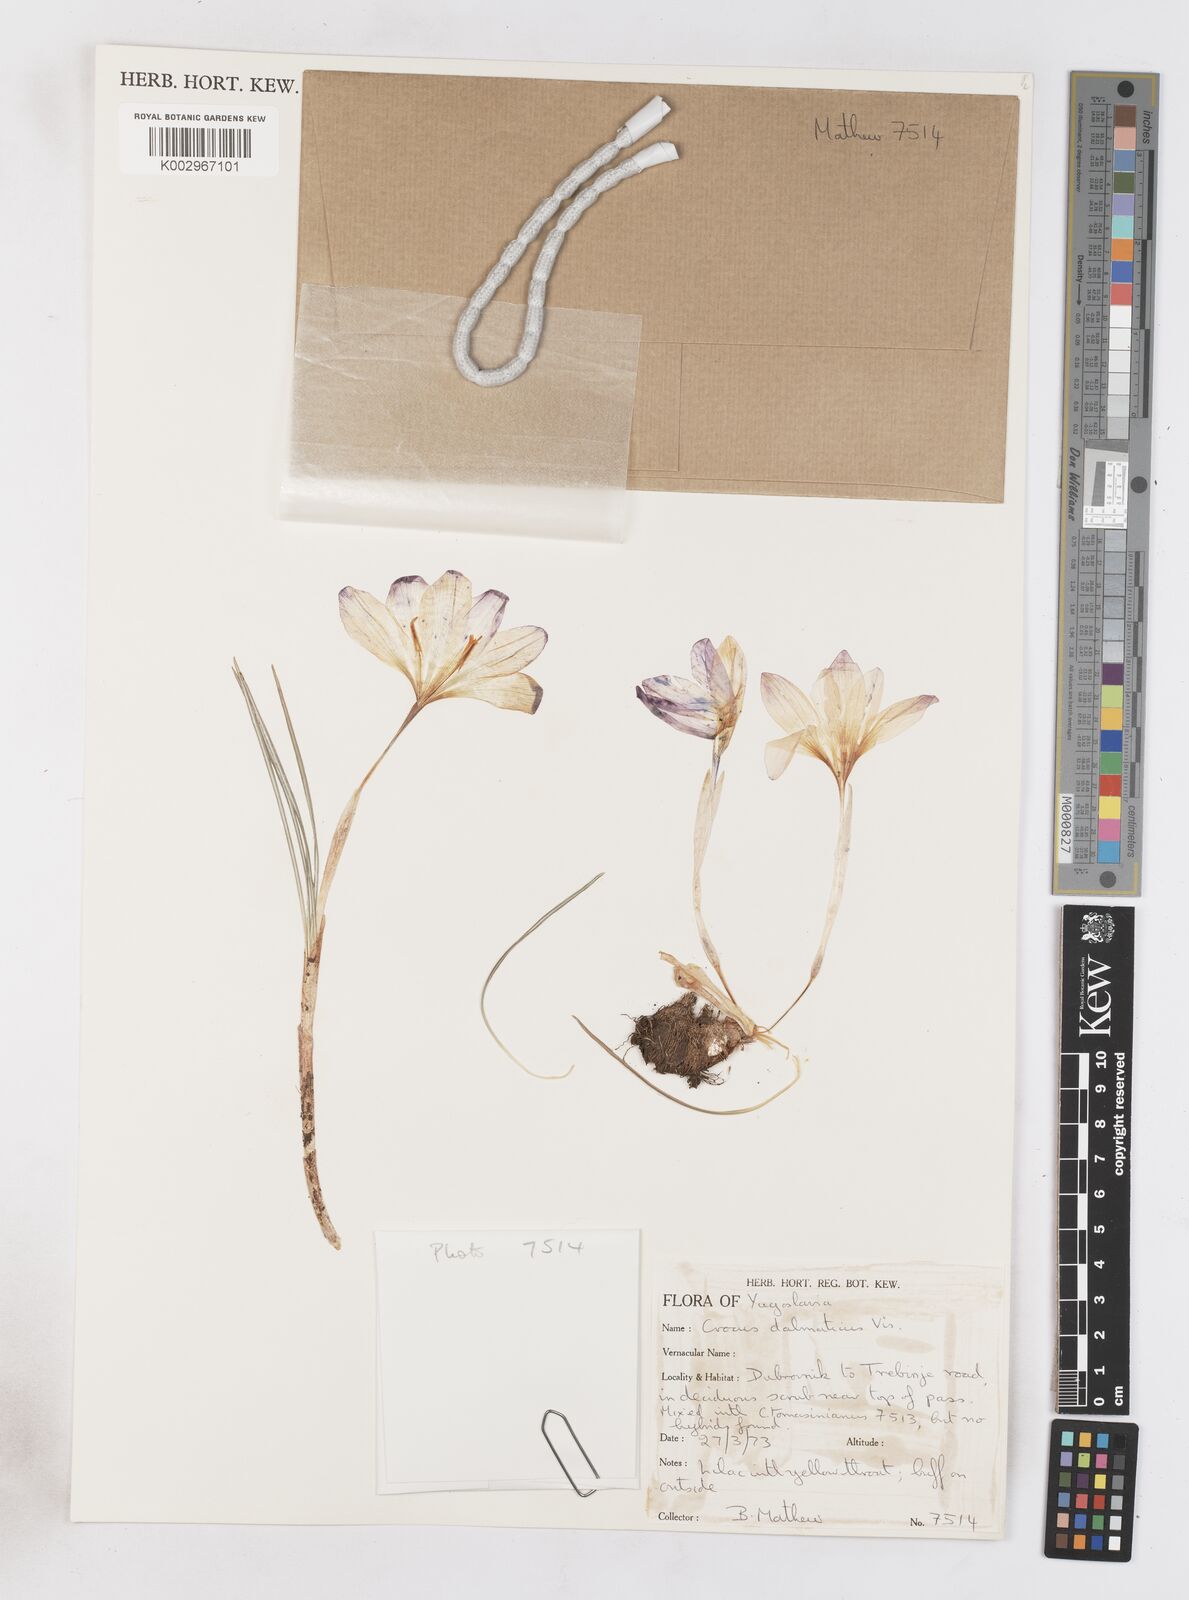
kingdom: Plantae
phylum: Tracheophyta
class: Liliopsida
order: Asparagales
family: Iridaceae
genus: Crocus
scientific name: Crocus dalmaticus
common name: Dalmatian saffron
